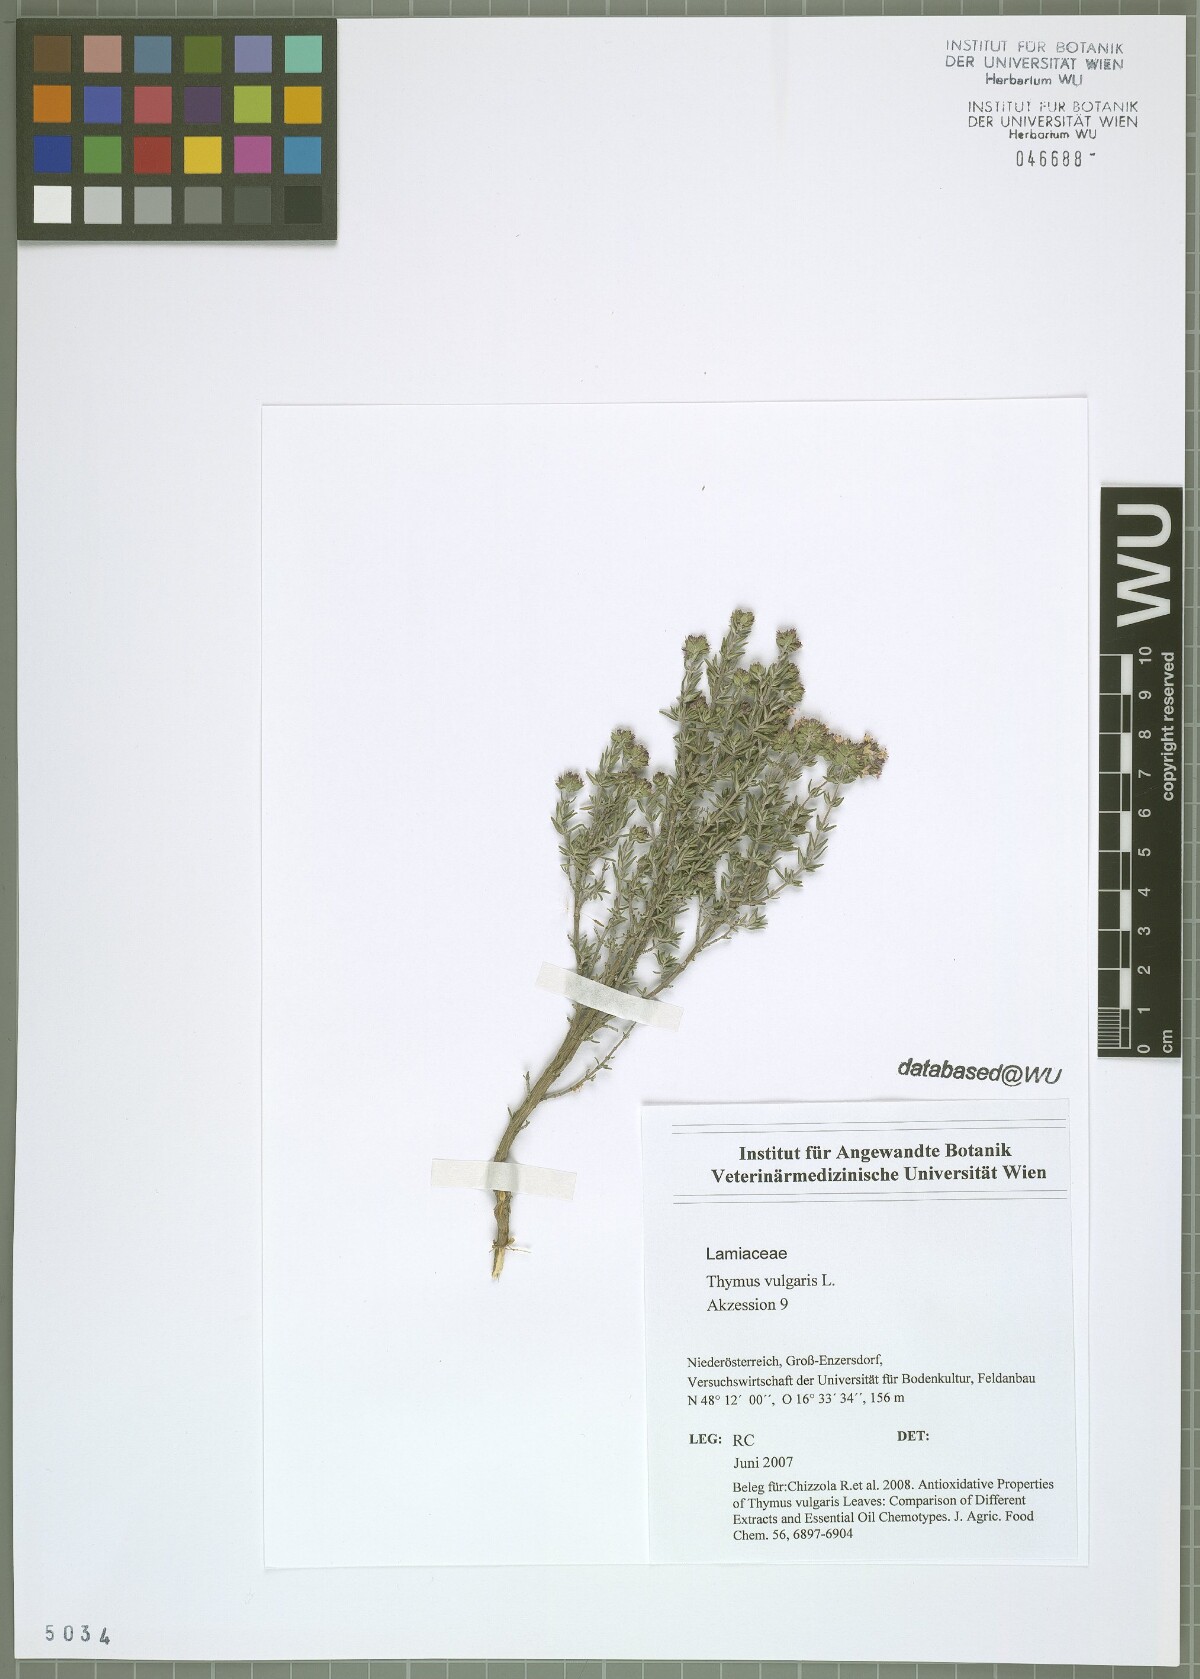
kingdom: Plantae
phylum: Tracheophyta
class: Magnoliopsida
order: Lamiales
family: Lamiaceae
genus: Thymus
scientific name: Thymus vulgaris
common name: Garden thyme
